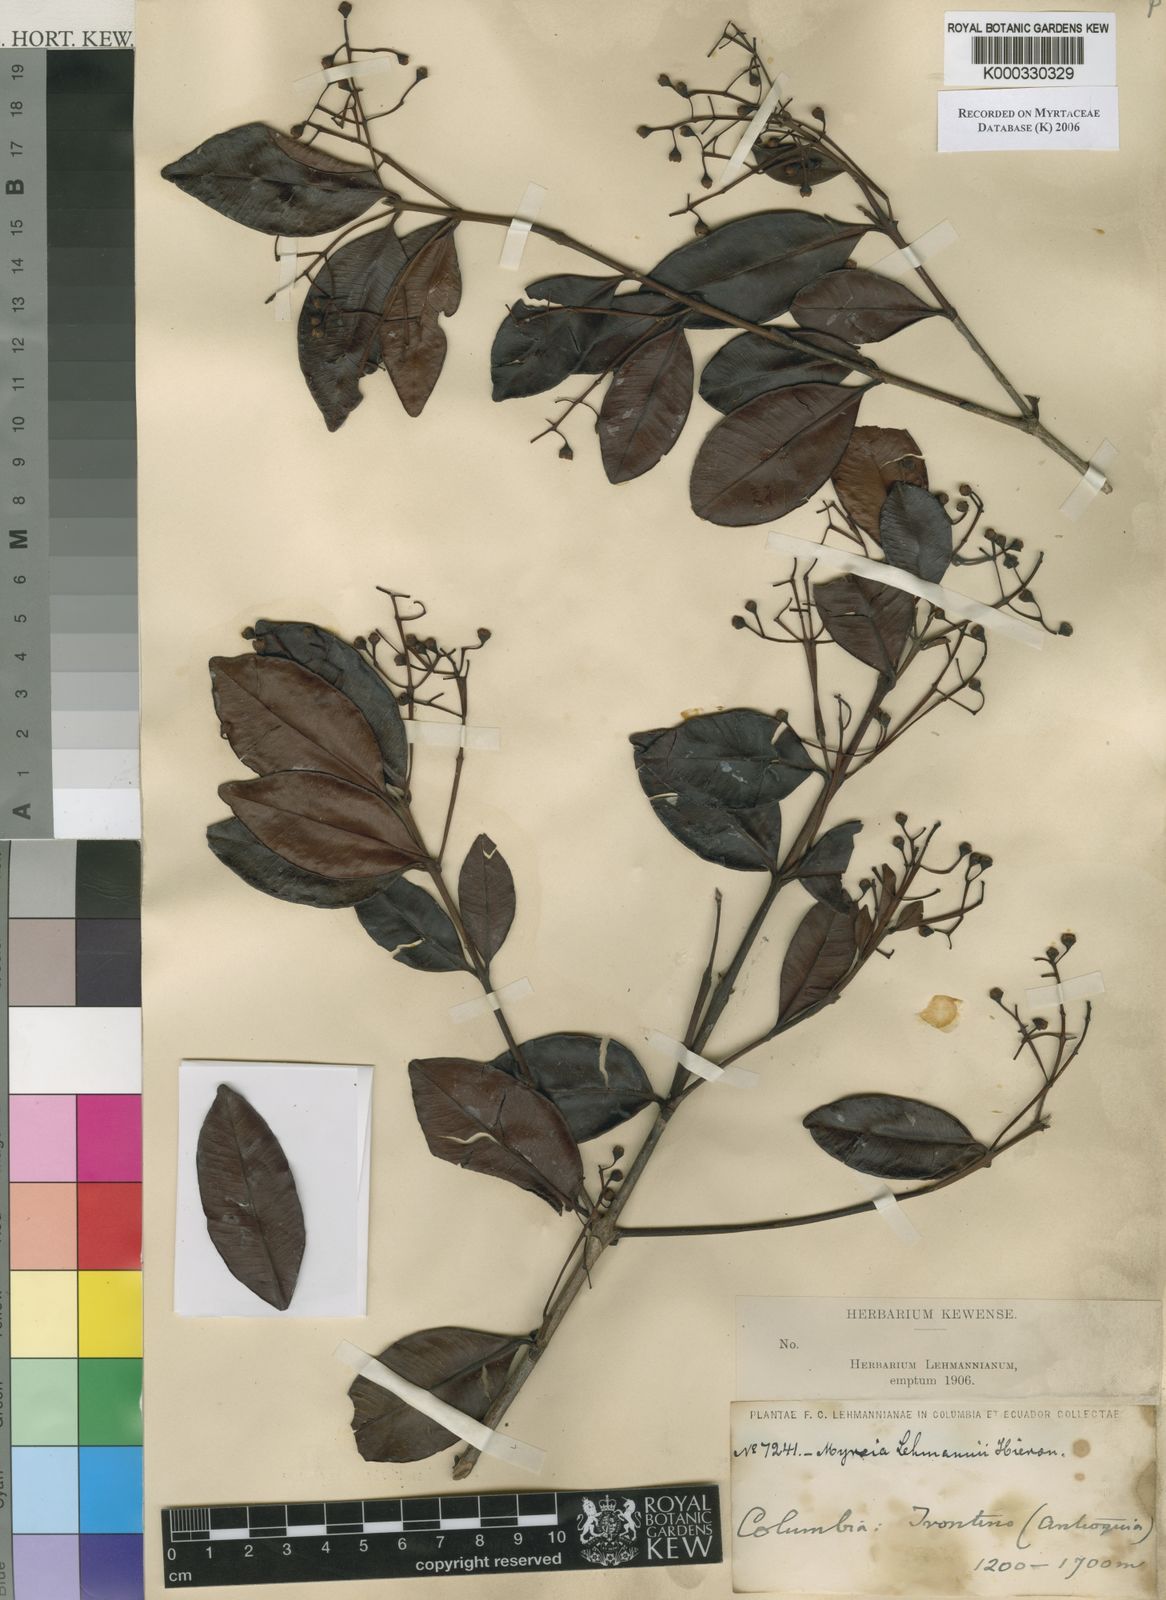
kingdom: Plantae
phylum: Tracheophyta
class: Magnoliopsida
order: Myrtales
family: Myrtaceae
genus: Myrcia
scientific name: Myrcia guianensis
